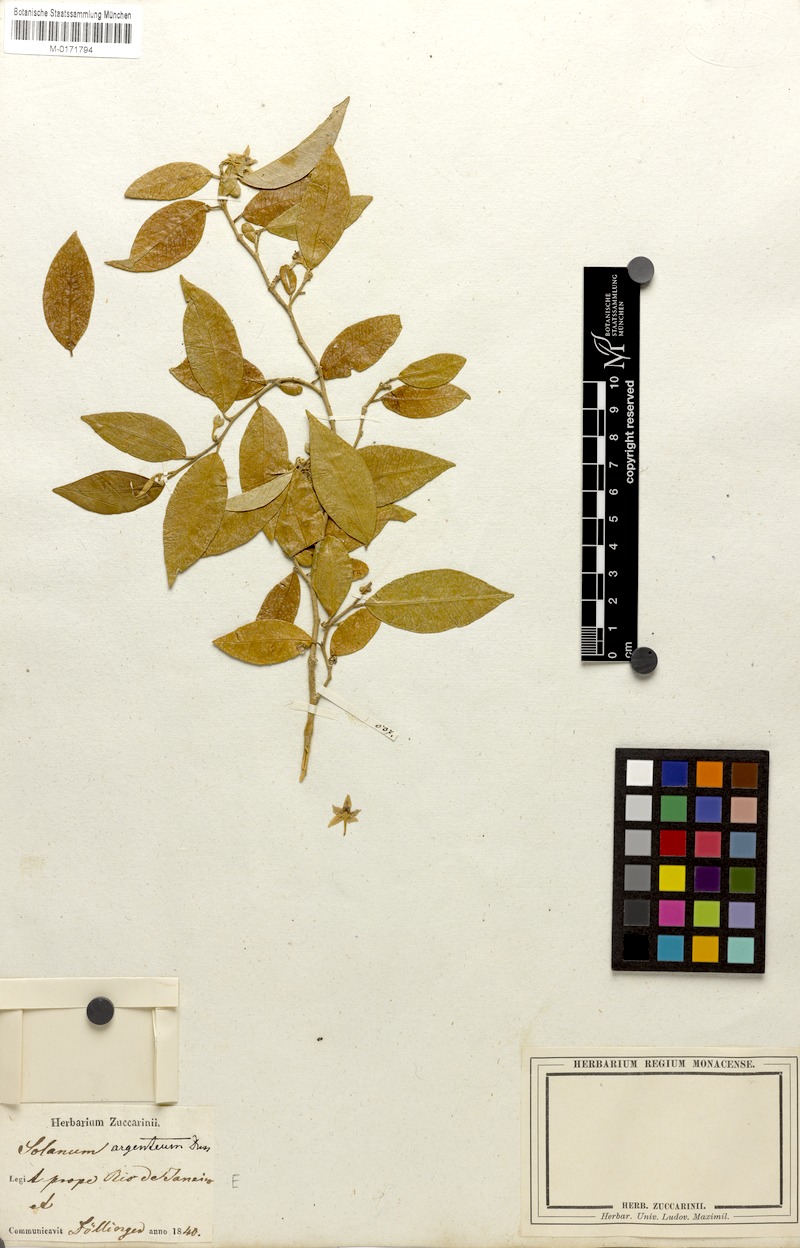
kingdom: Plantae
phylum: Tracheophyta
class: Magnoliopsida
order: Solanales
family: Solanaceae
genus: Solanum
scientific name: Solanum argenteum
